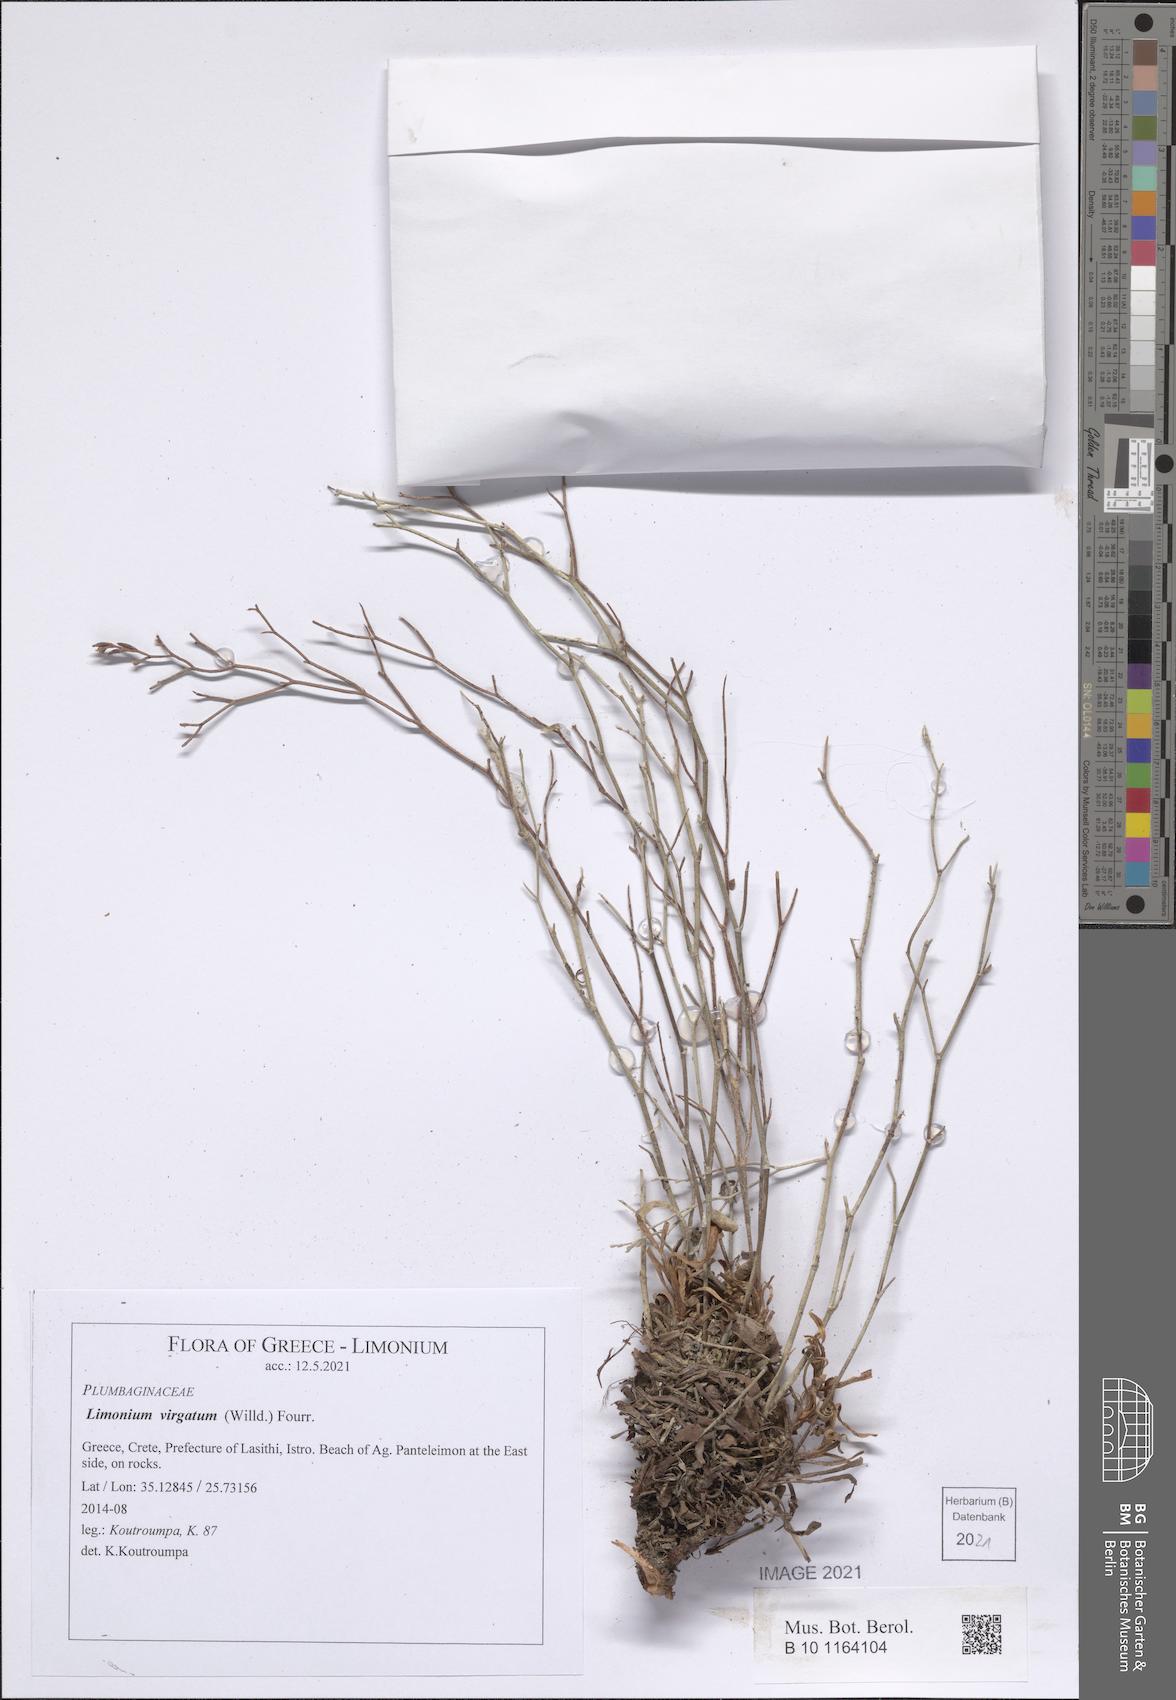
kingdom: Plantae
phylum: Tracheophyta
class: Magnoliopsida
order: Caryophyllales
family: Plumbaginaceae
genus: Limonium
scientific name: Limonium virgatum
